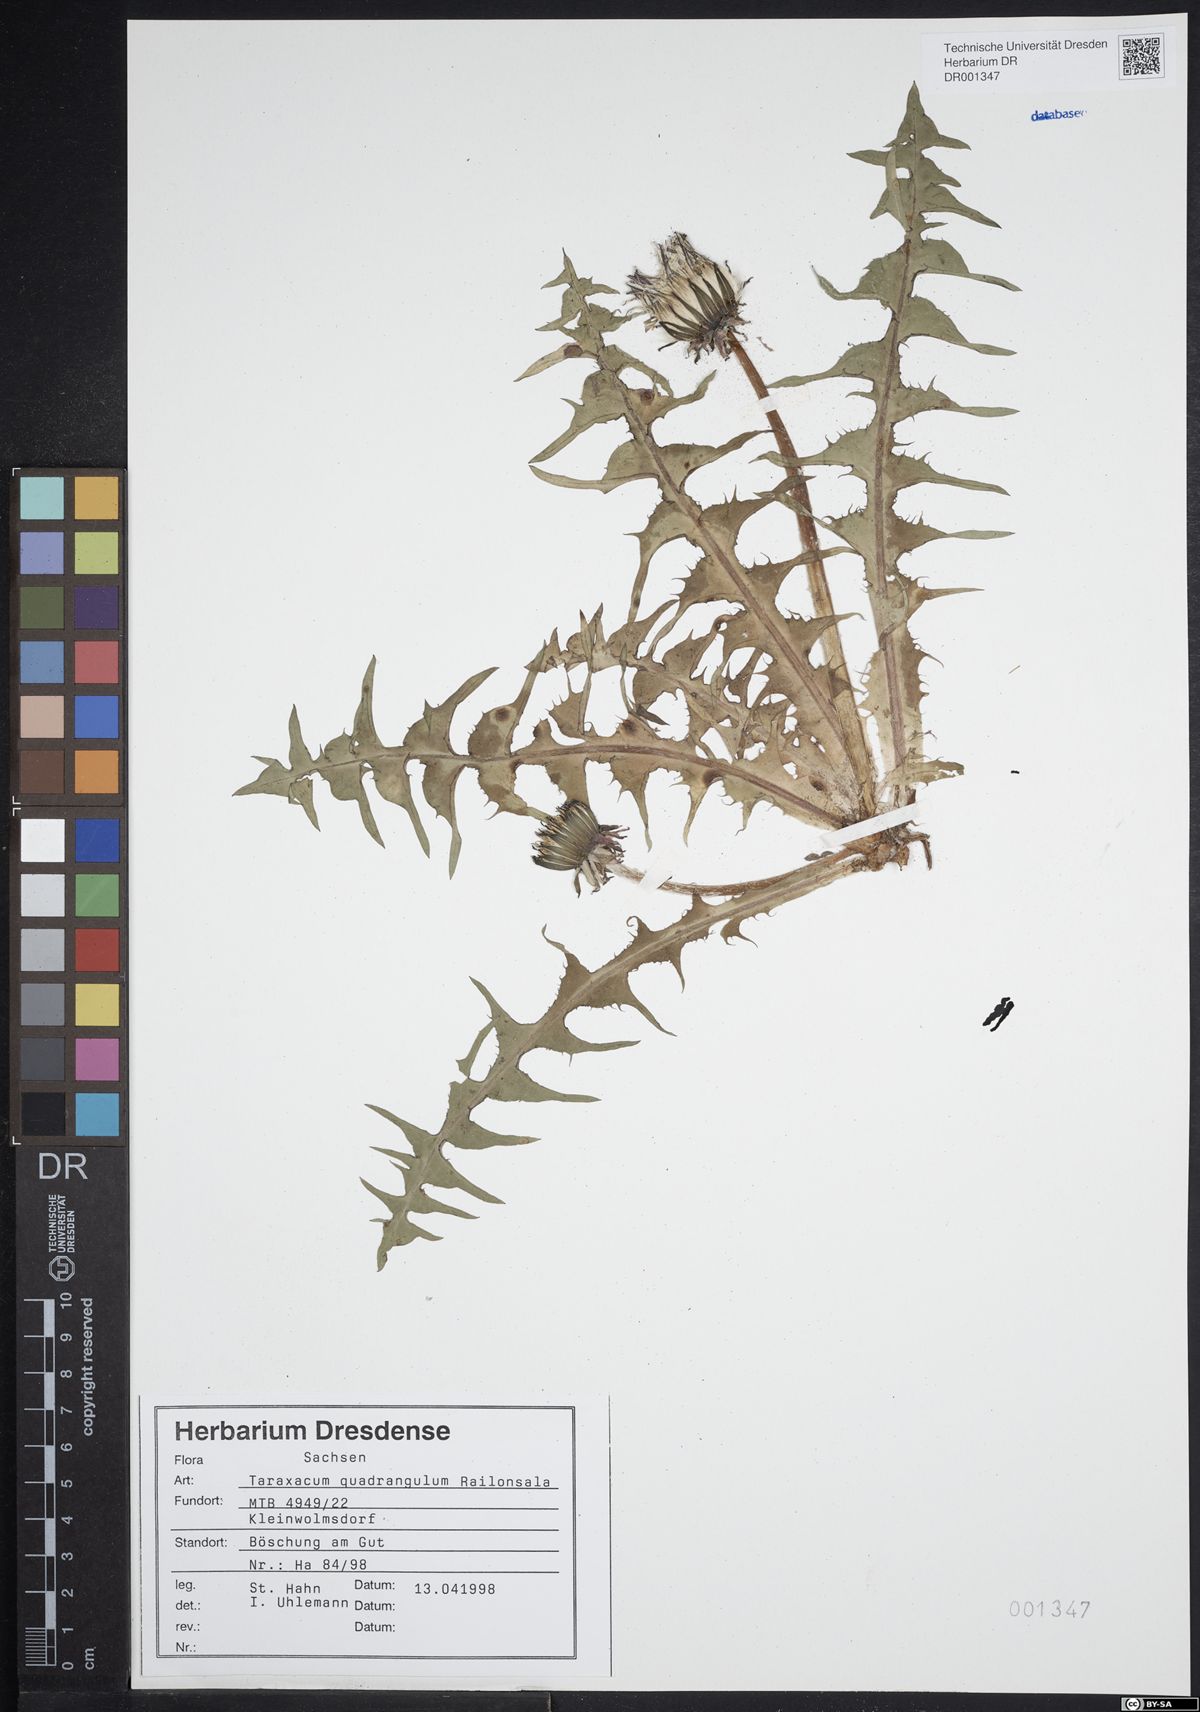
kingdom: Plantae
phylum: Tracheophyta
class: Magnoliopsida
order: Asterales
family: Asteraceae
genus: Taraxacum
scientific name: Taraxacum quadrangulum
